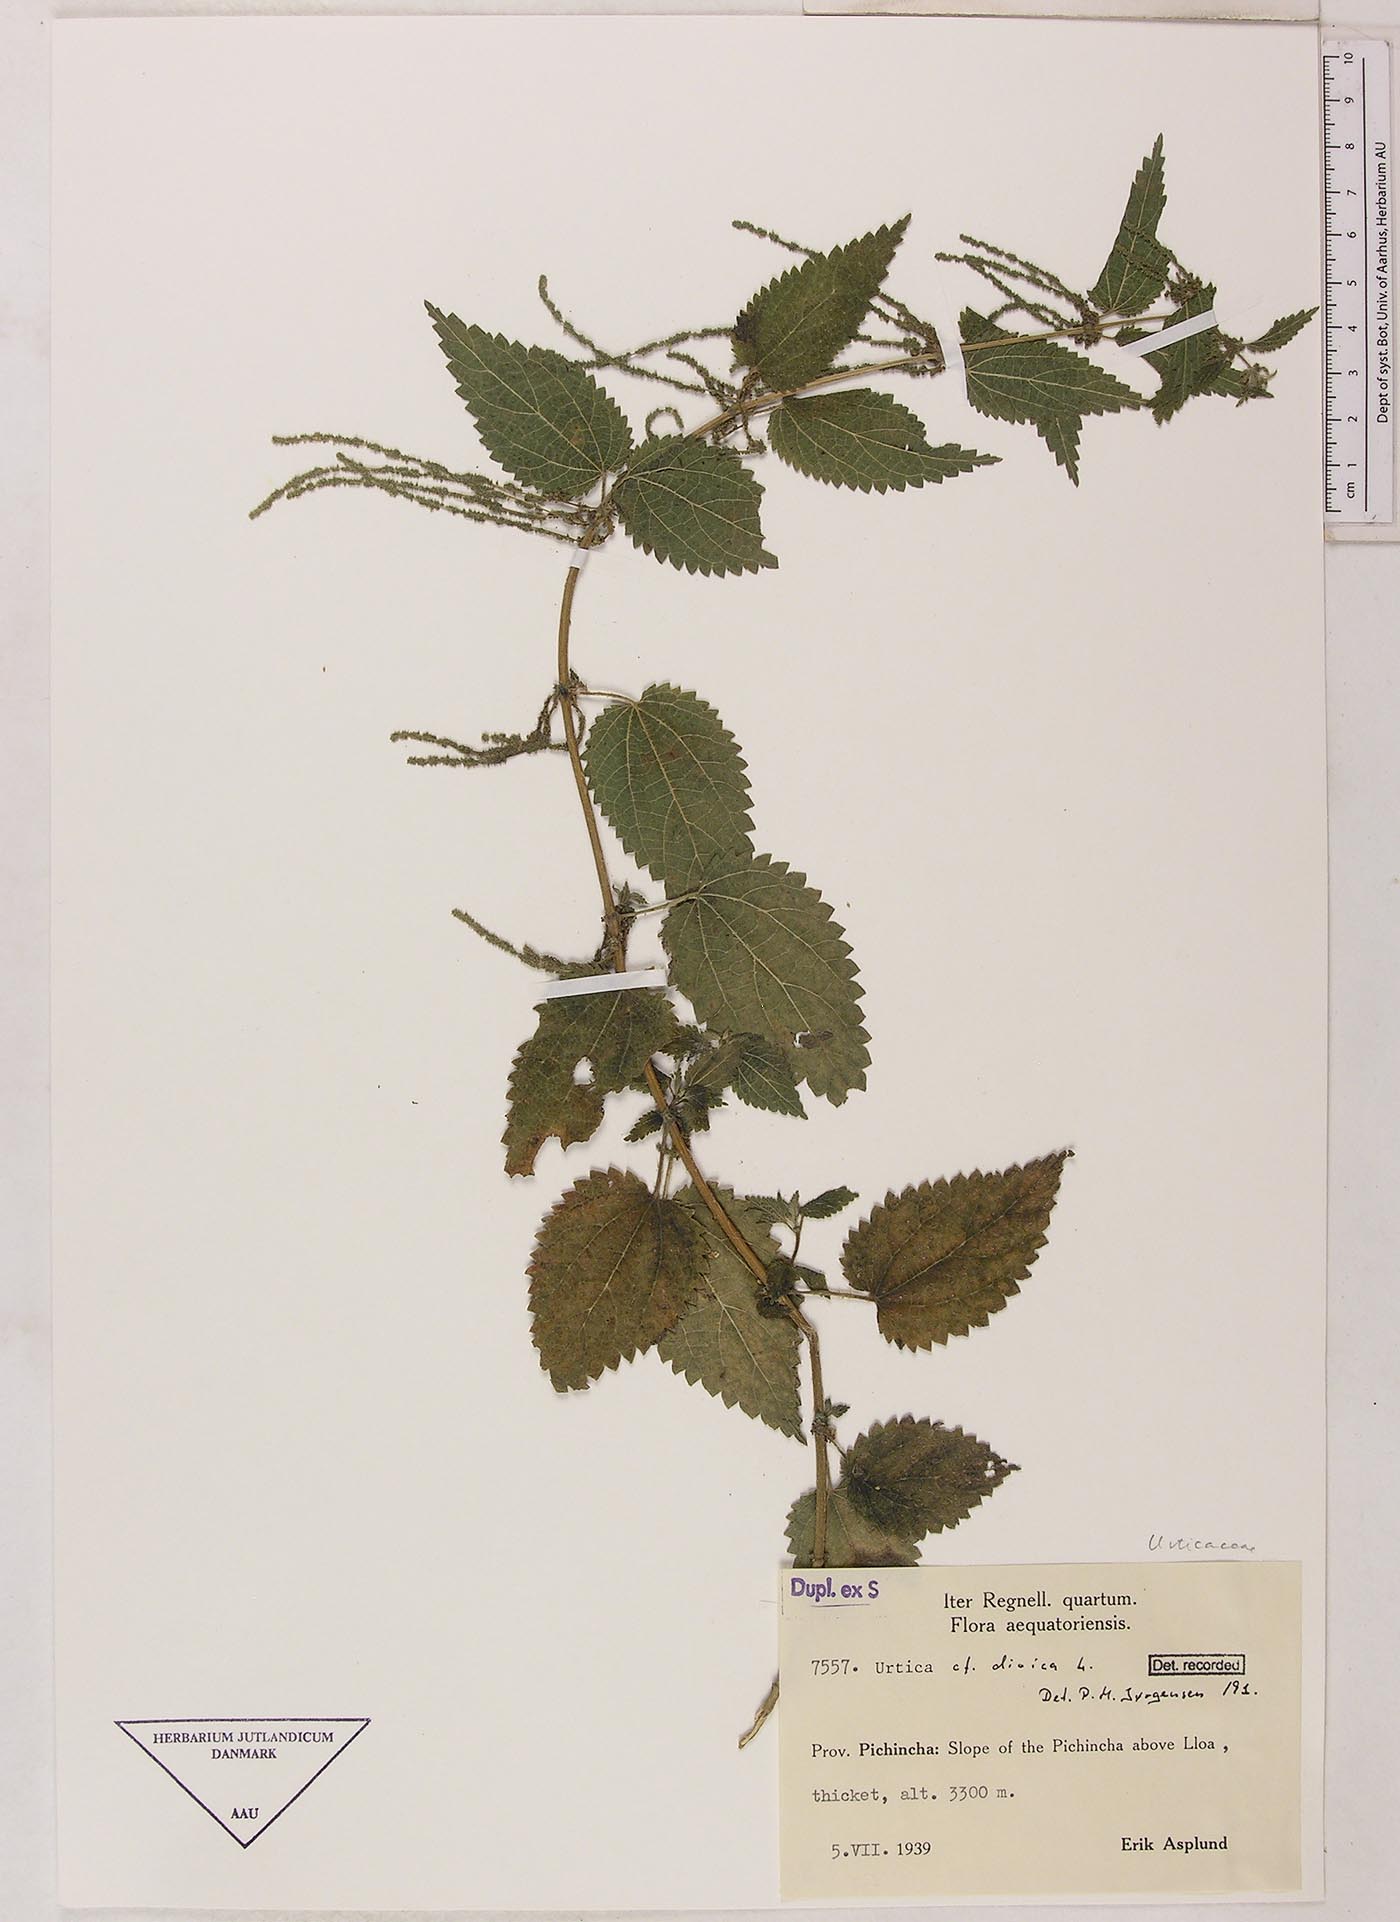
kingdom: Plantae
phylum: Tracheophyta
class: Magnoliopsida
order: Rosales
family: Urticaceae
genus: Urtica
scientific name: Urtica longispica
